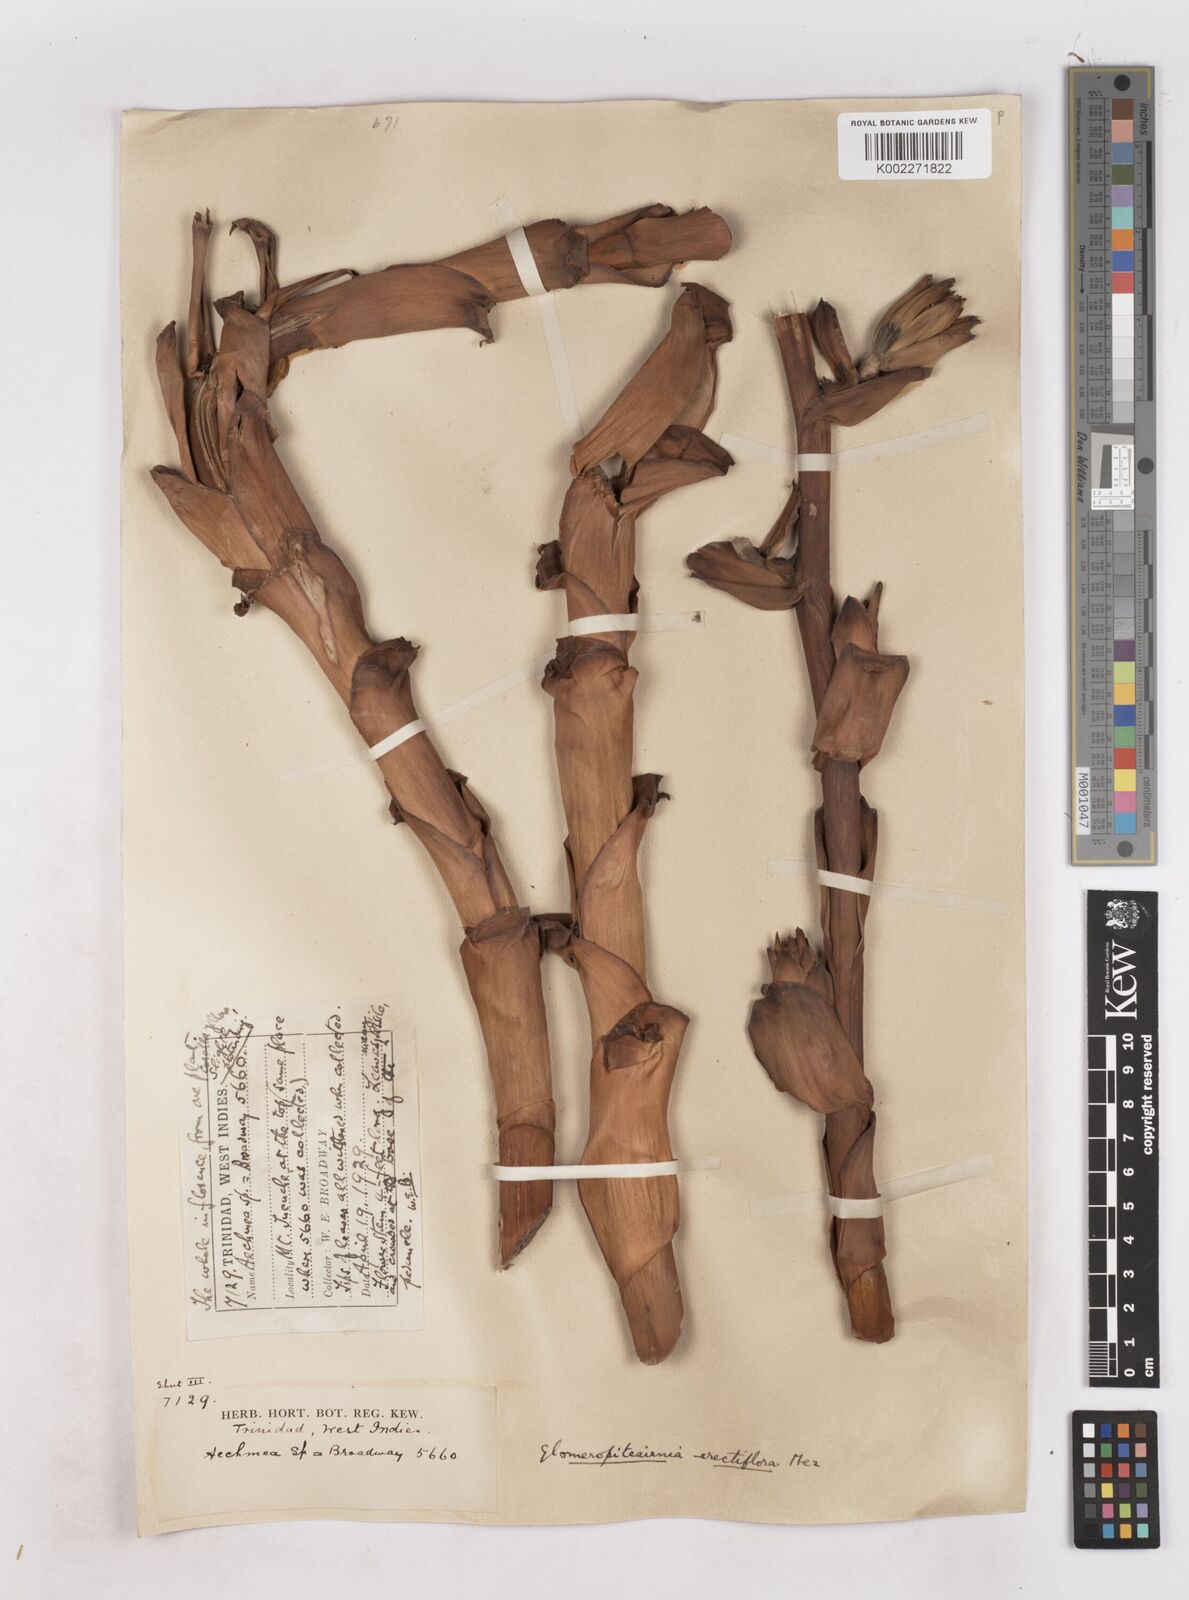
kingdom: Plantae
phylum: Tracheophyta
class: Liliopsida
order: Poales
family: Bromeliaceae
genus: Glomeropitcairnia
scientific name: Glomeropitcairnia erectiflora
